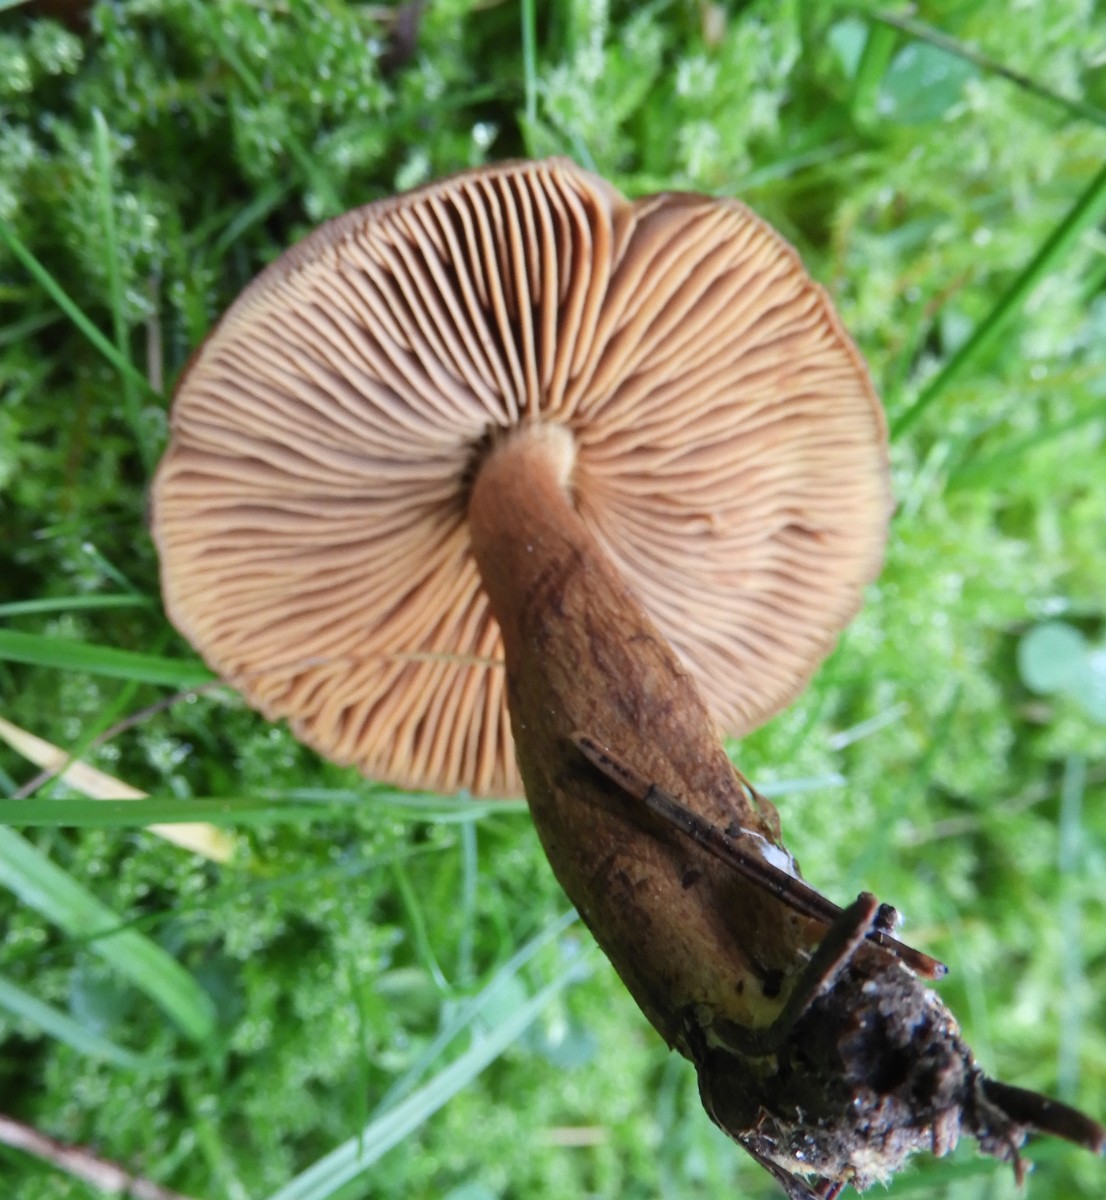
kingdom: Fungi
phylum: Basidiomycota
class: Agaricomycetes
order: Agaricales
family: Cortinariaceae
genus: Cortinarius
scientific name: Cortinarius
